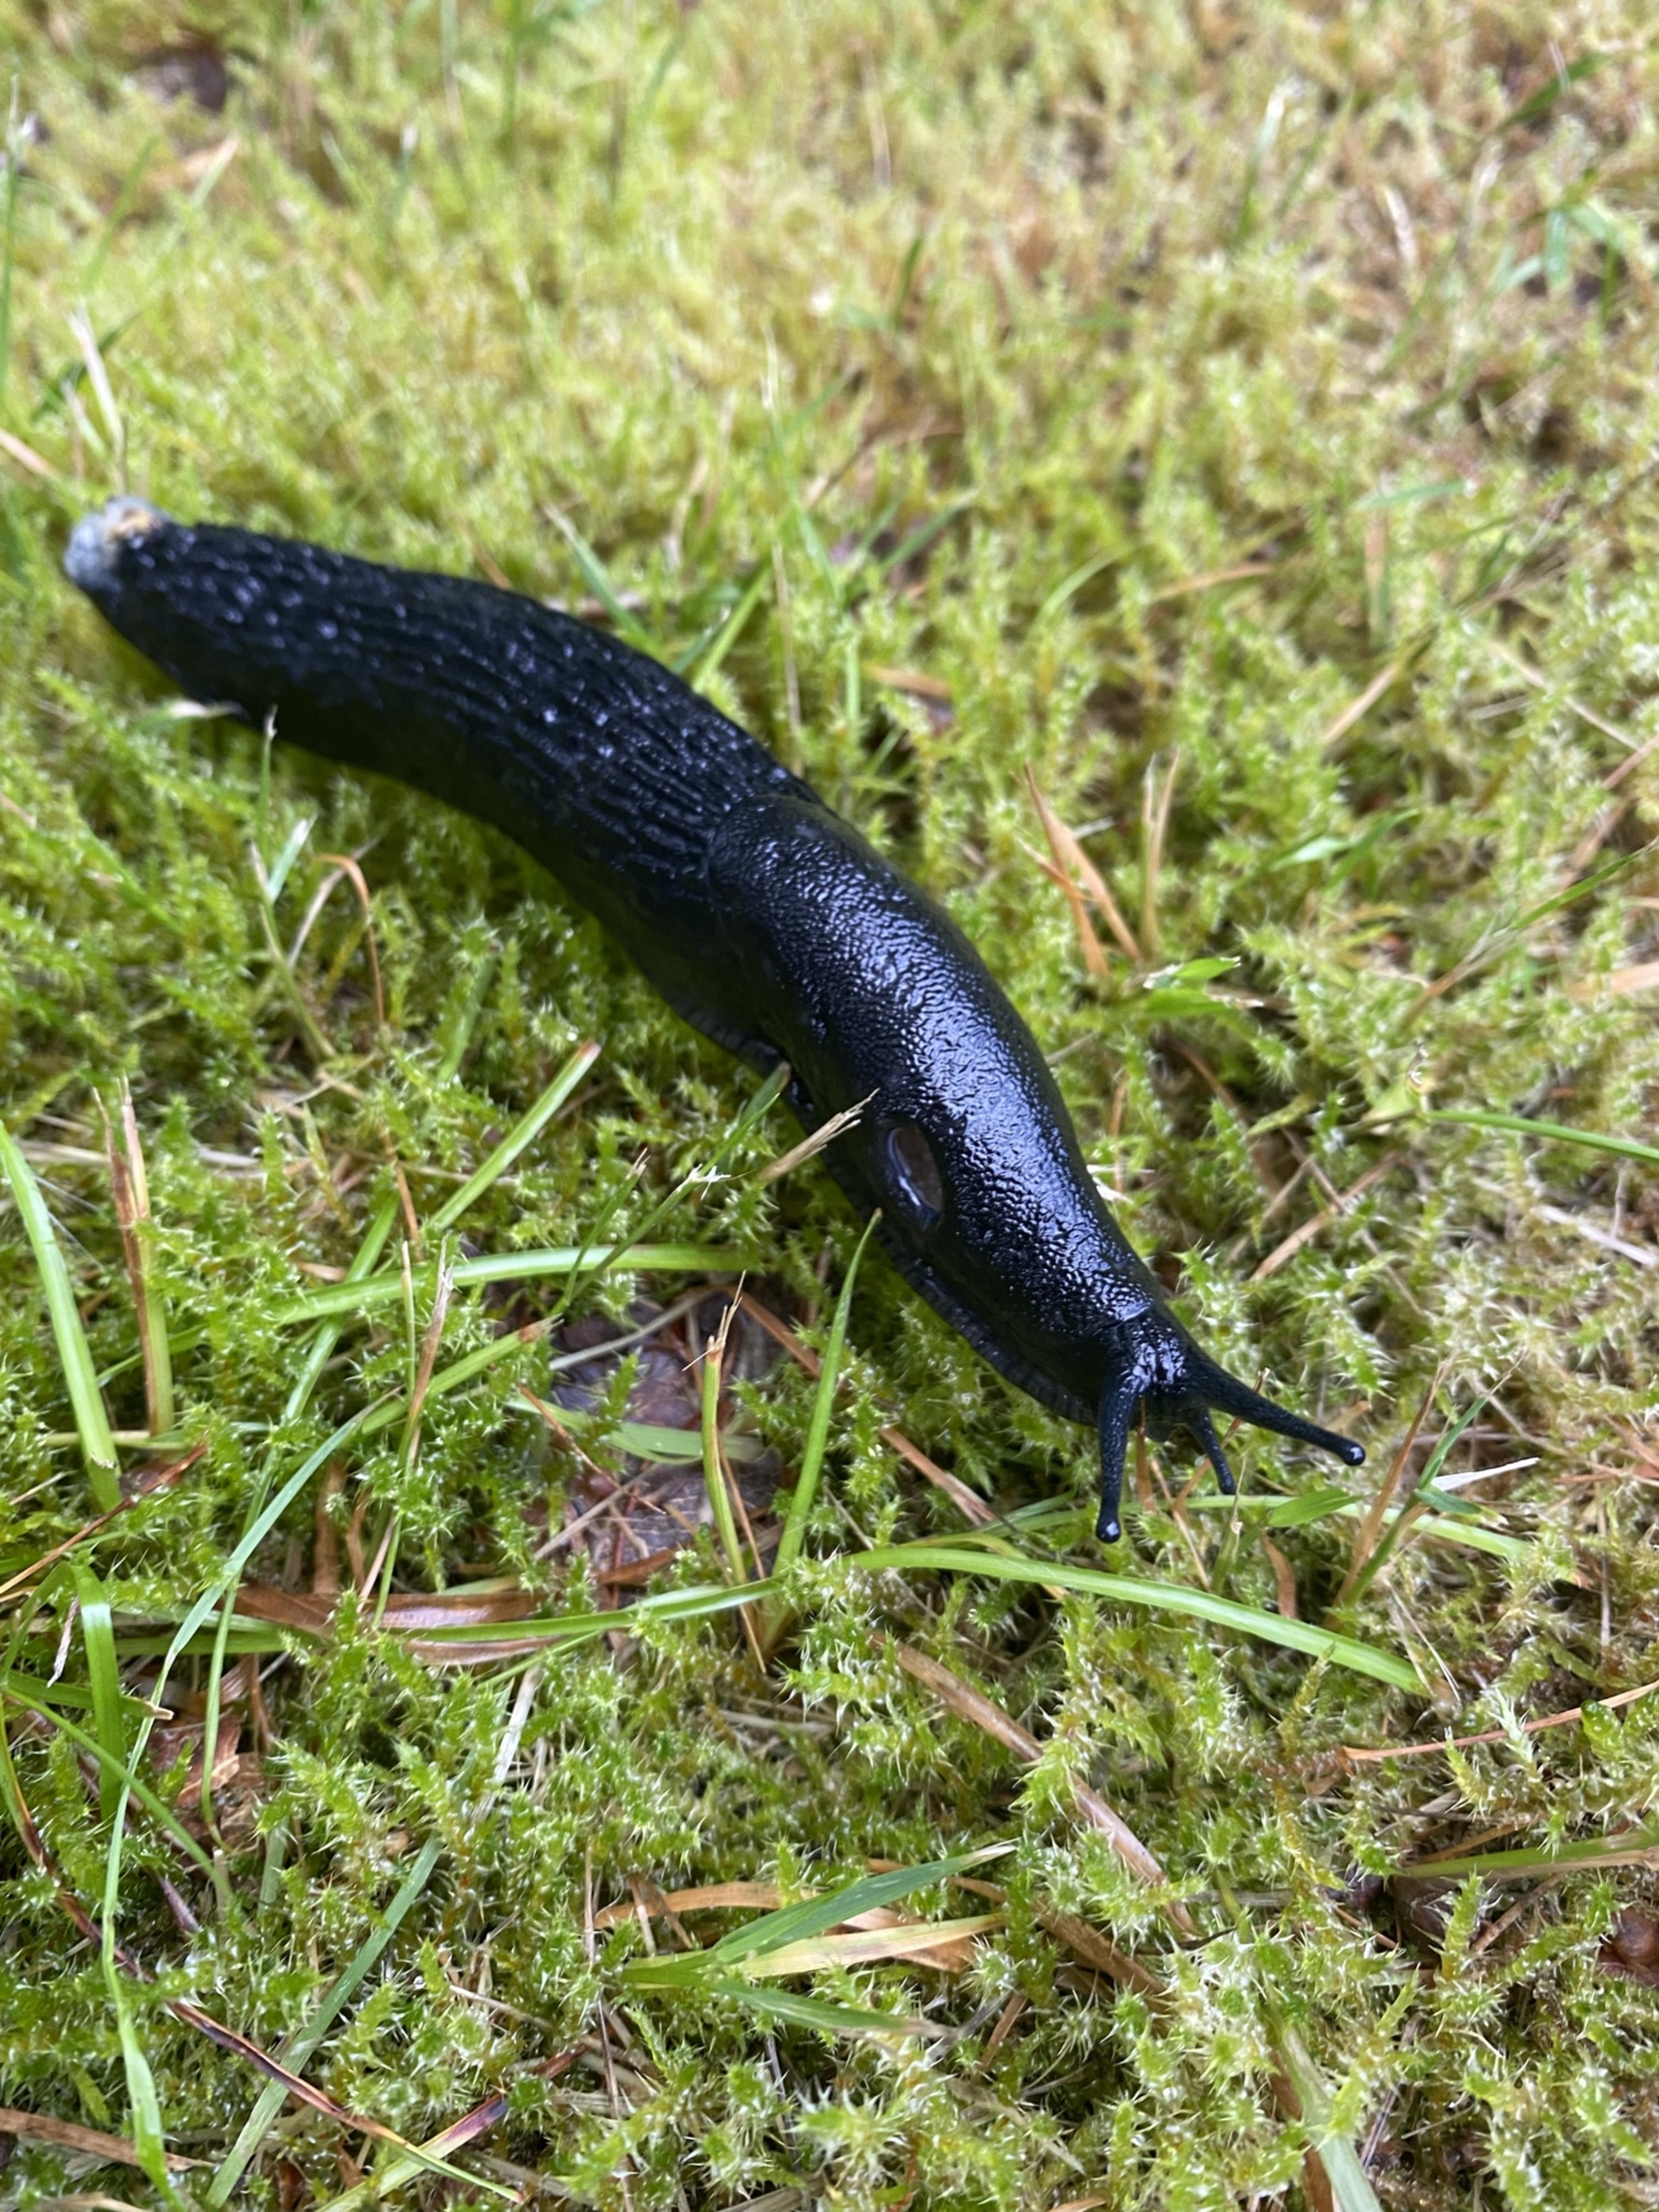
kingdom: Animalia
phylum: Mollusca
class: Gastropoda
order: Stylommatophora
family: Arionidae
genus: Arion
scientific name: Arion ater
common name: Sort skovsnegl
